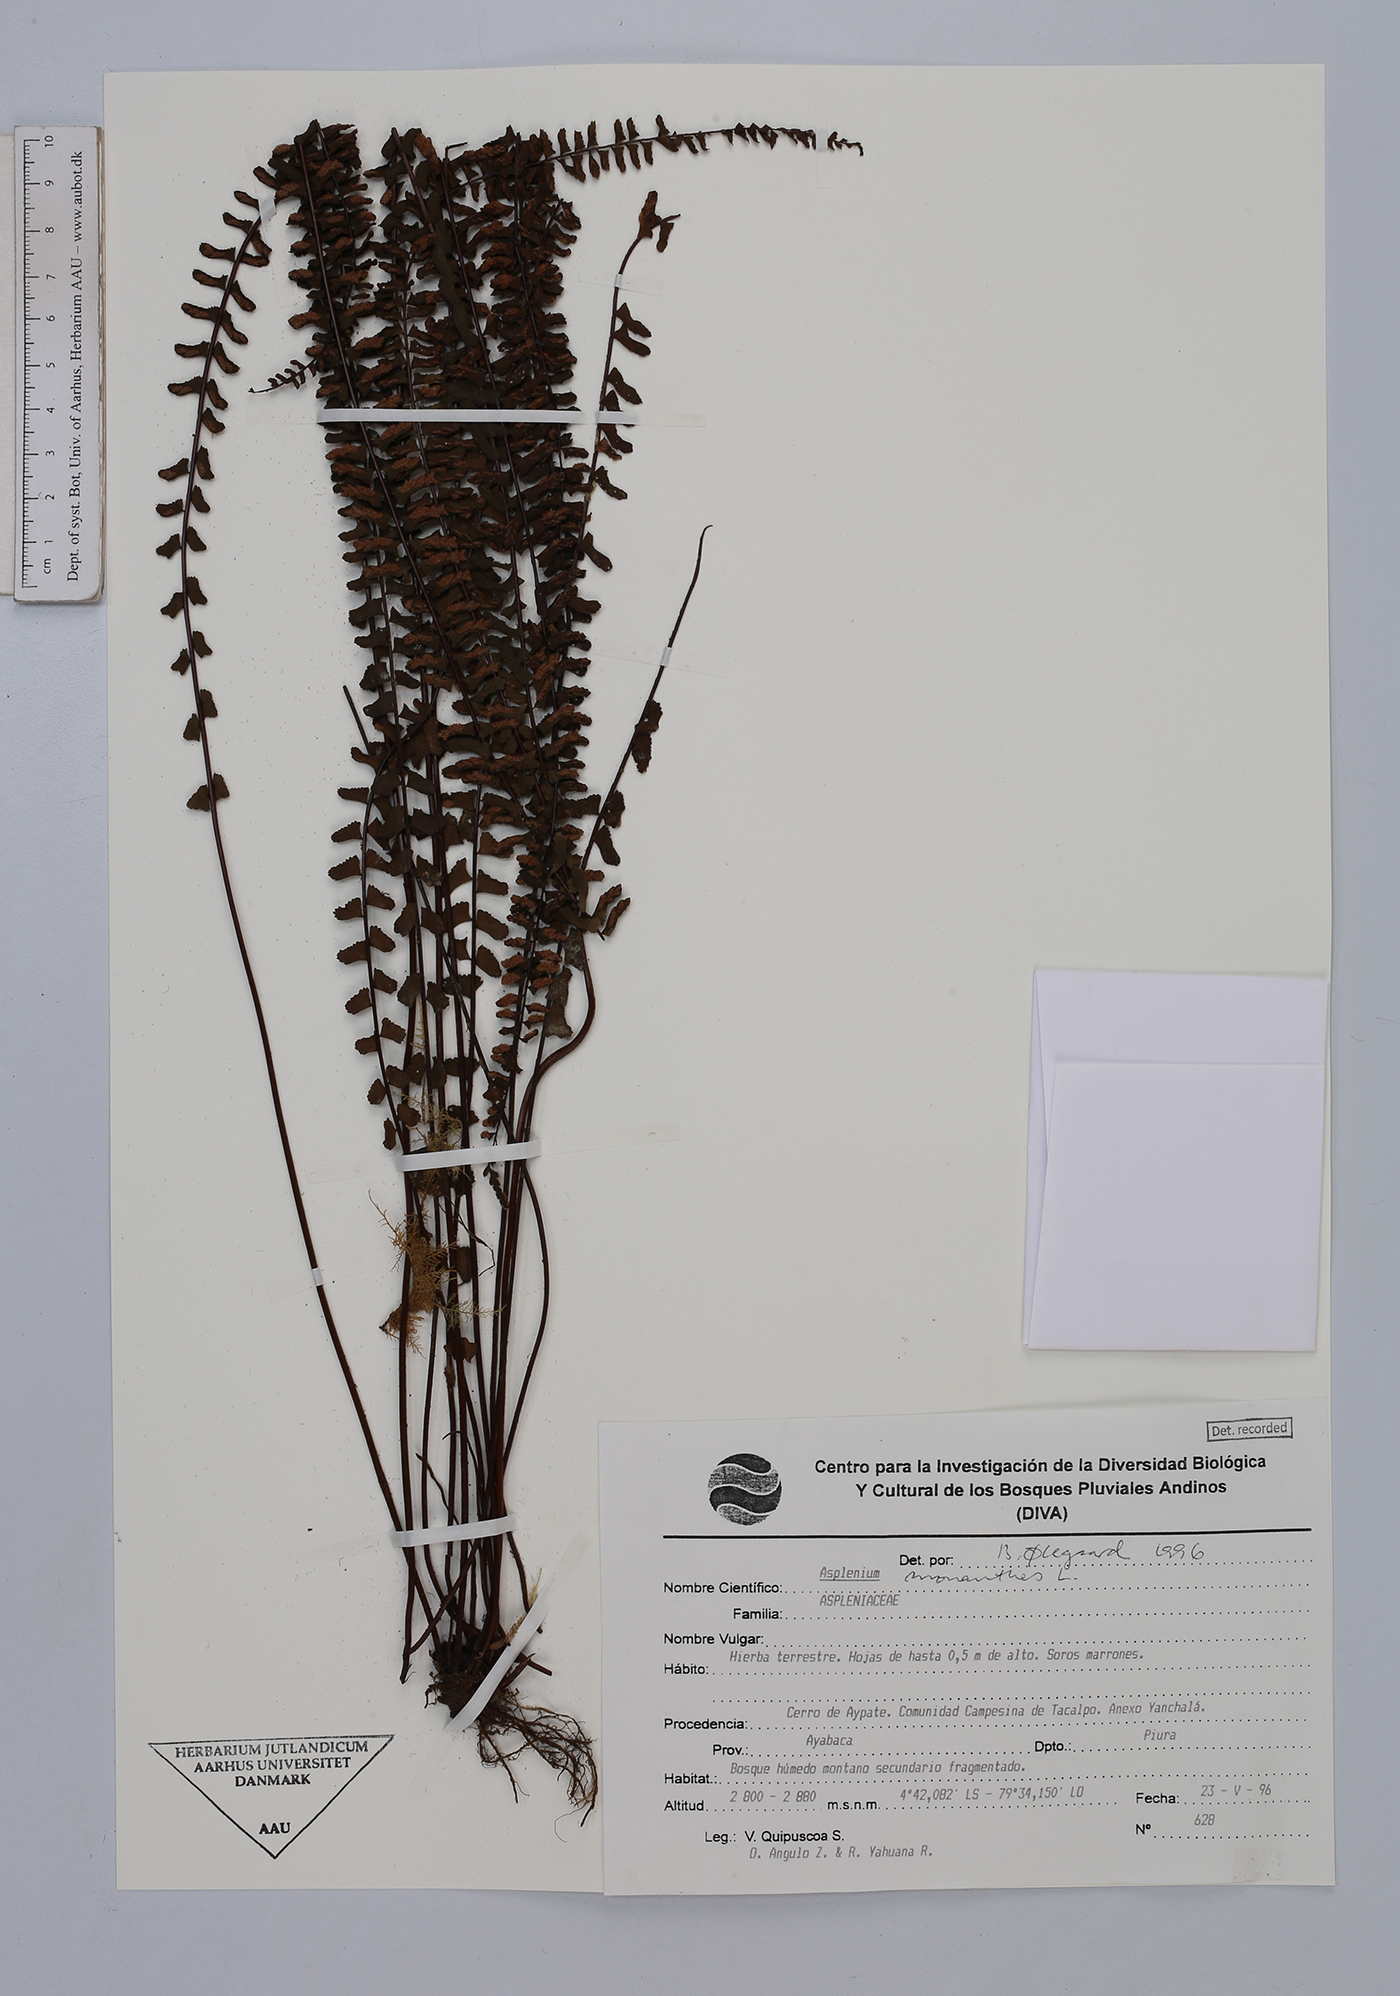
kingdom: Plantae
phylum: Tracheophyta
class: Polypodiopsida
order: Polypodiales
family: Aspleniaceae
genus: Asplenium
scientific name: Asplenium monanthes
